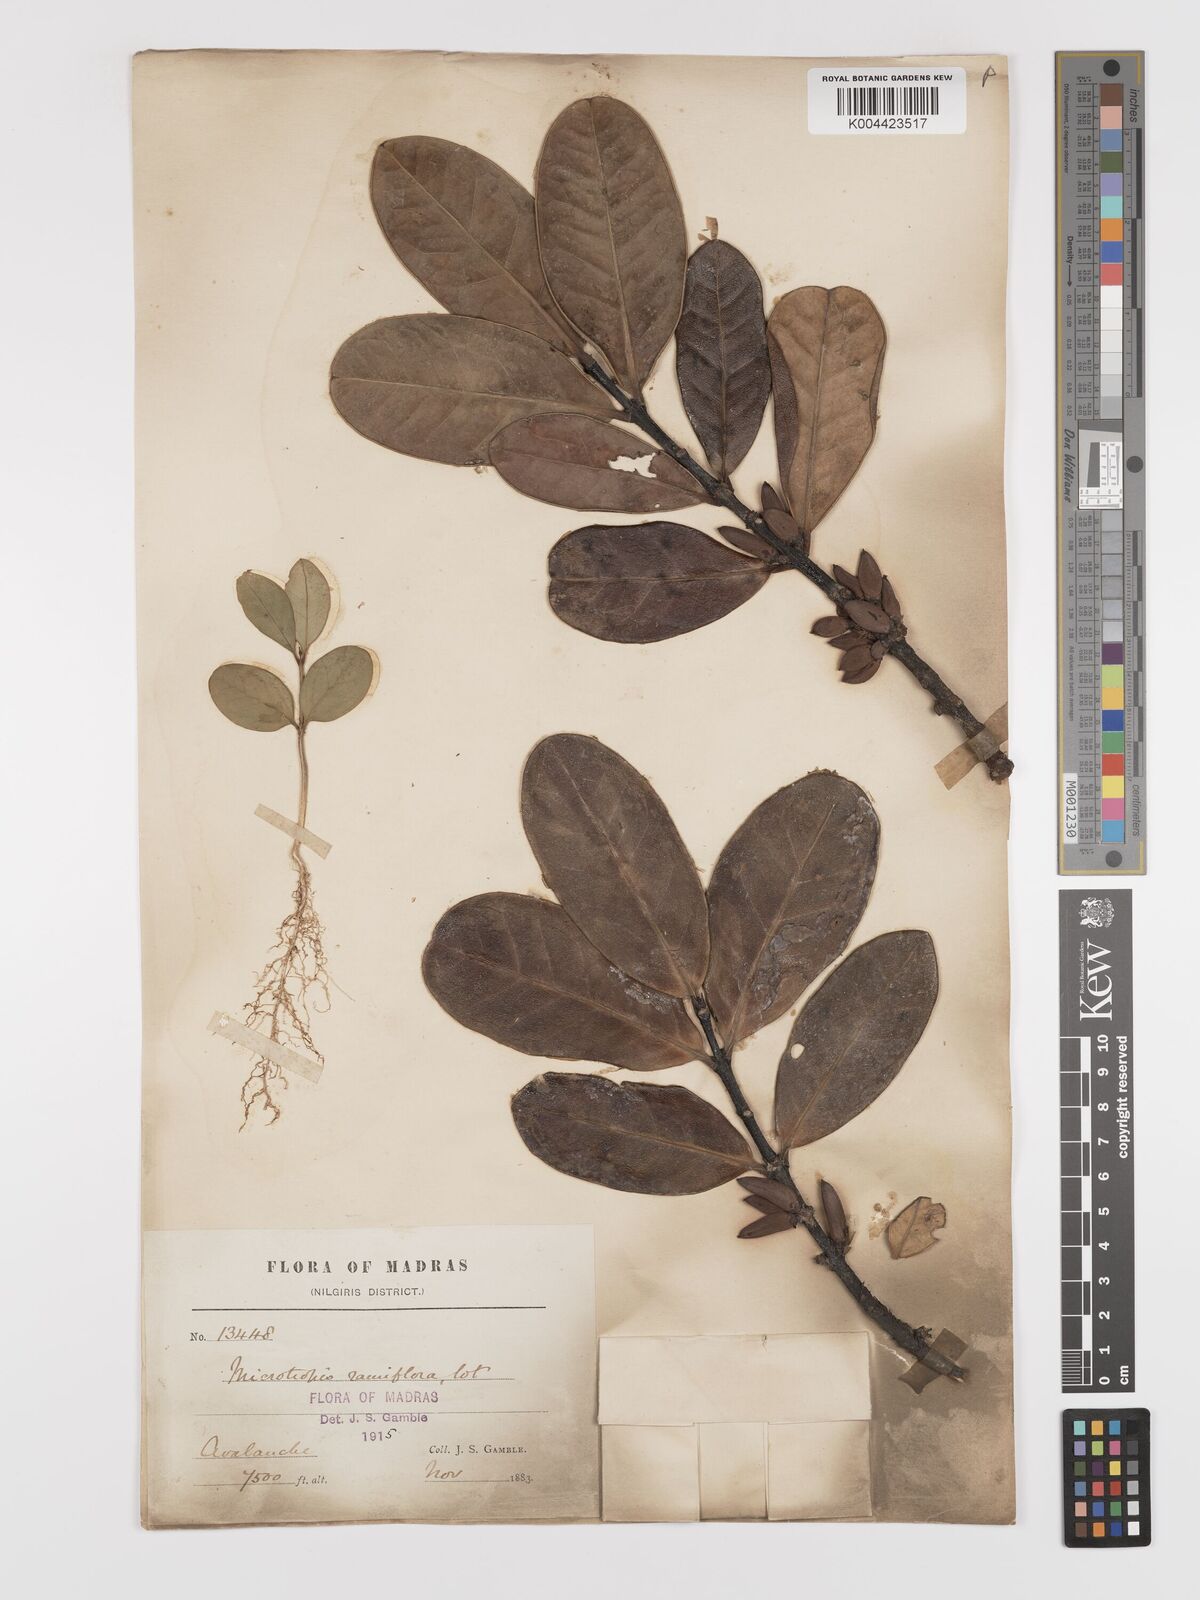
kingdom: Plantae
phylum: Tracheophyta
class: Magnoliopsida
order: Celastrales
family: Celastraceae
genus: Microtropis
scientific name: Microtropis ramiflora
